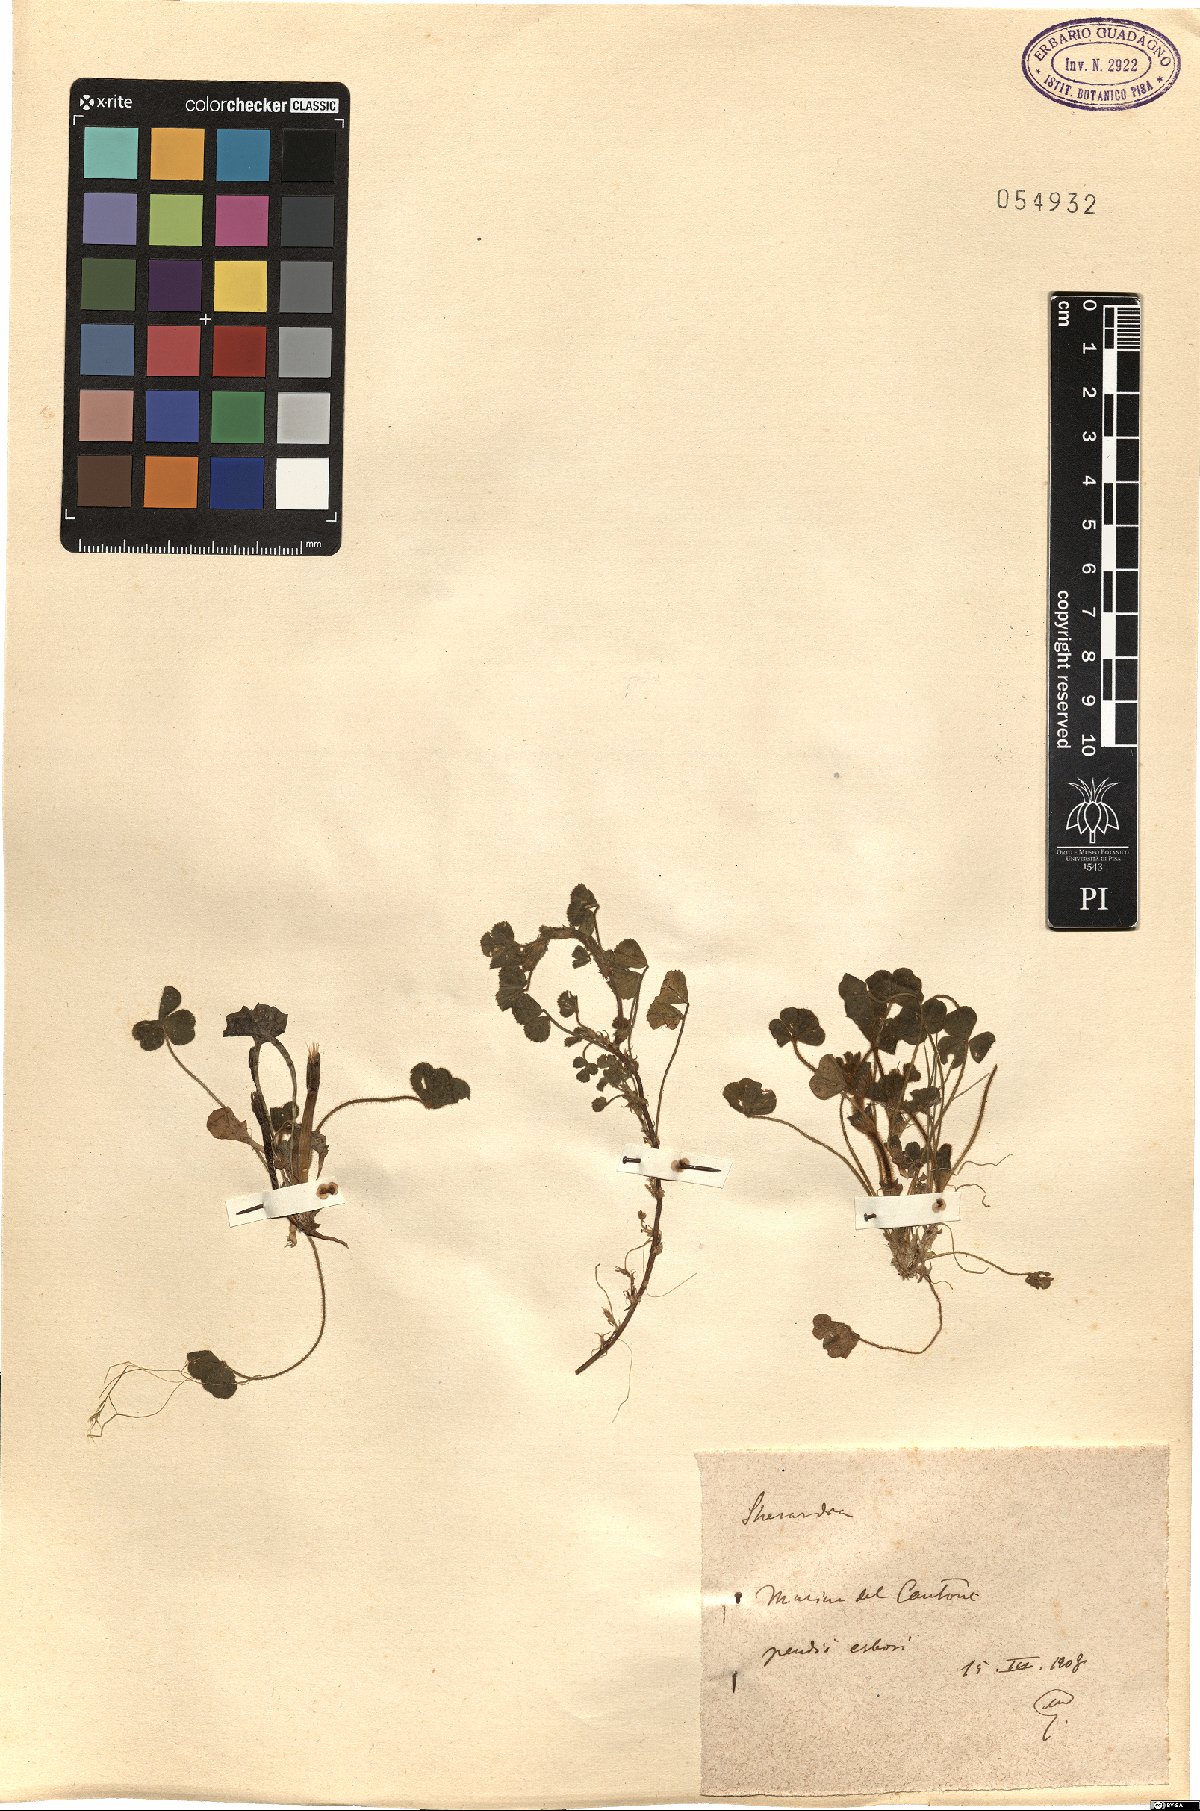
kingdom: Plantae
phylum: Tracheophyta
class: Magnoliopsida
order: Gentianales
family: Rubiaceae
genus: Sherardia
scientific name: Sherardia
